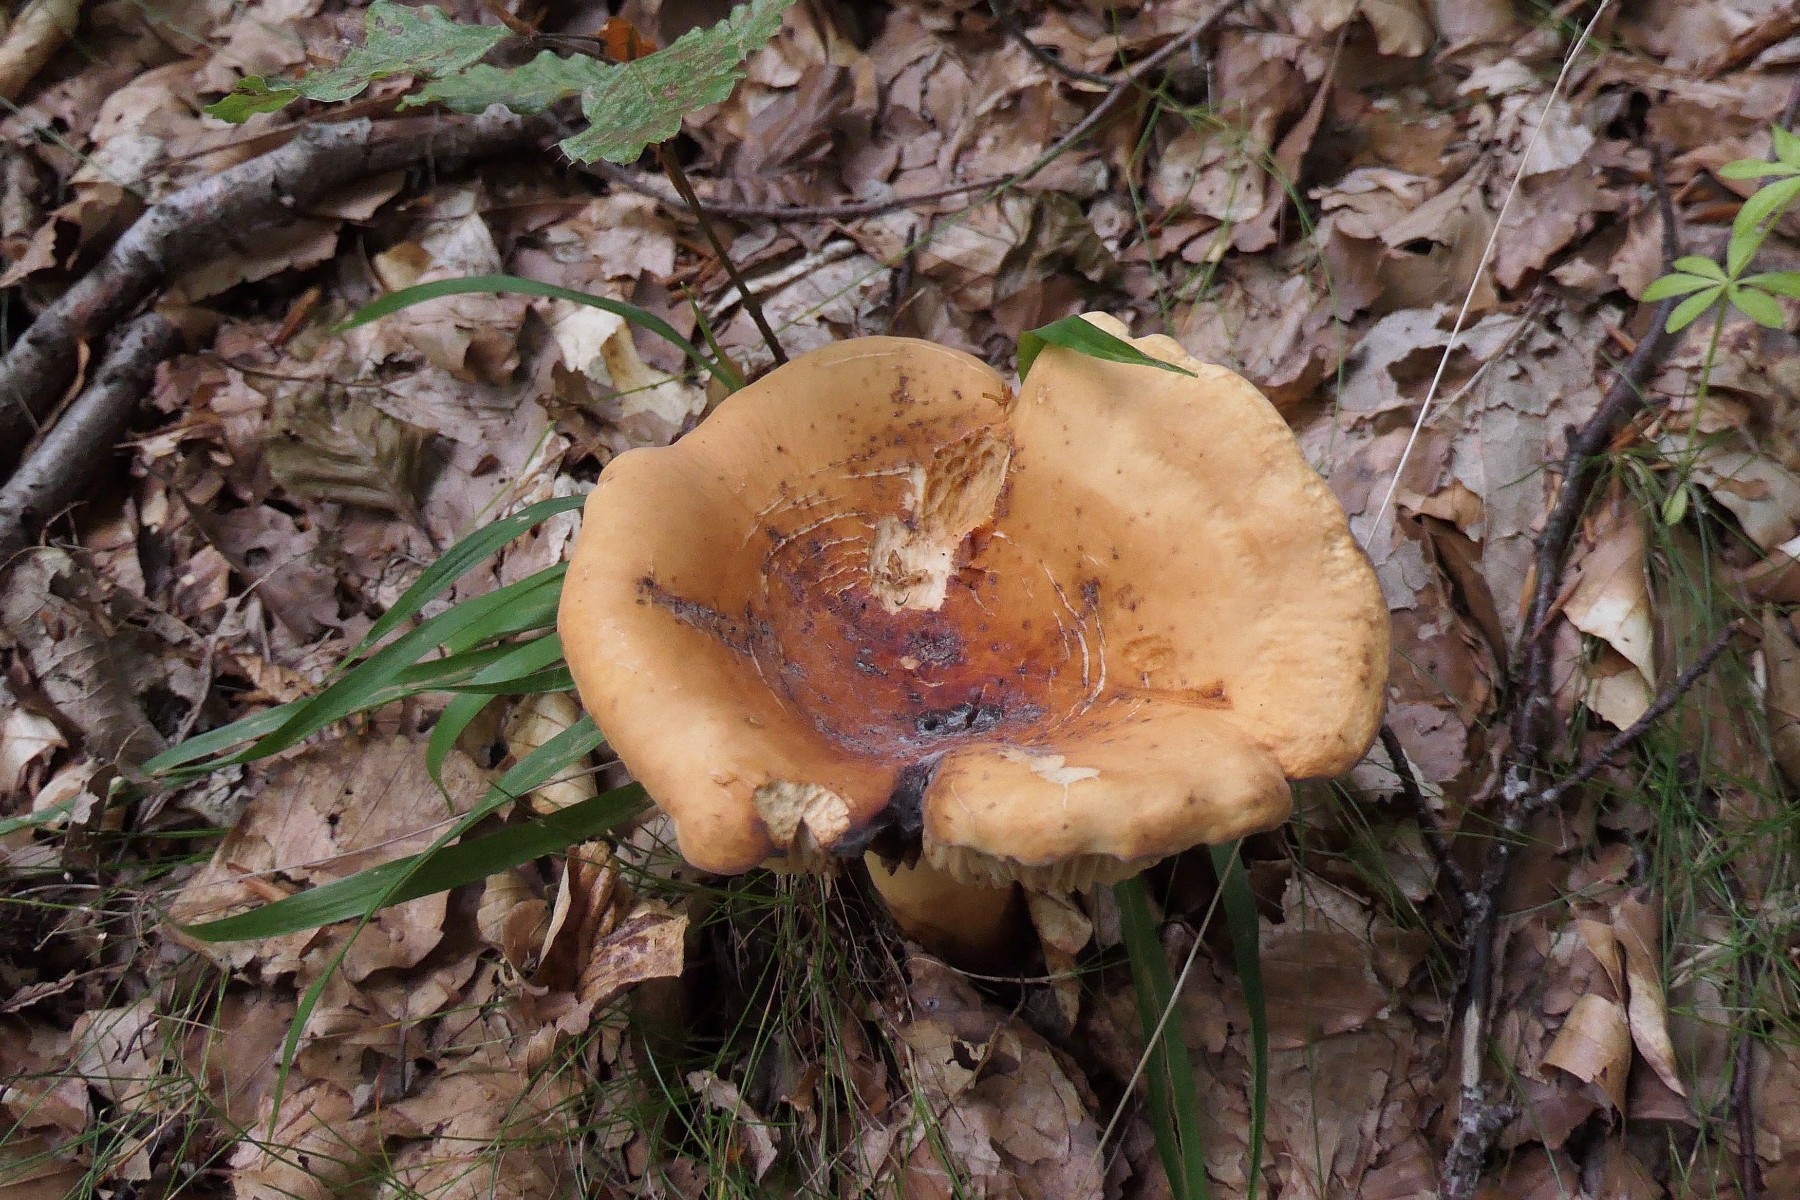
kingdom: Fungi
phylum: Basidiomycota
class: Agaricomycetes
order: Russulales
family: Russulaceae
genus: Lactifluus
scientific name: Lactifluus volemus
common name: spiselig mælkehat
